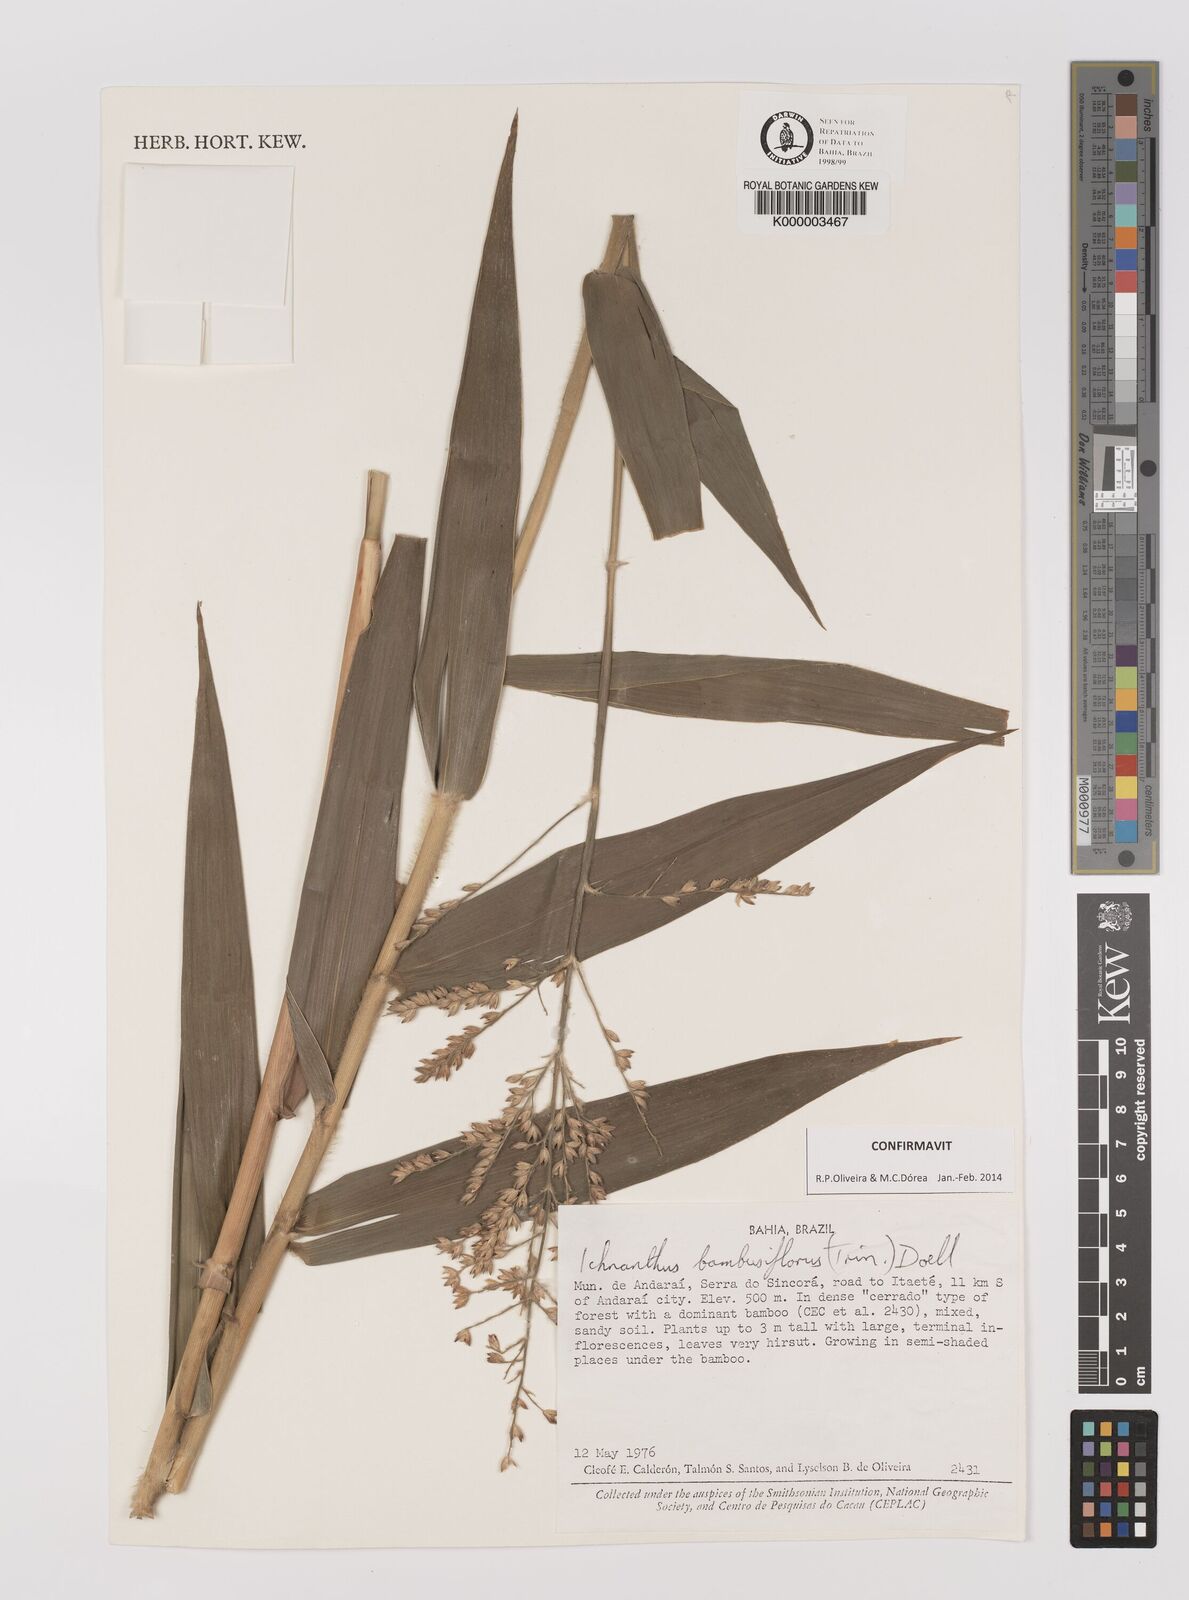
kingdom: Plantae
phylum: Tracheophyta
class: Liliopsida
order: Poales
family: Poaceae
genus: Ichnanthus
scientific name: Ichnanthus
